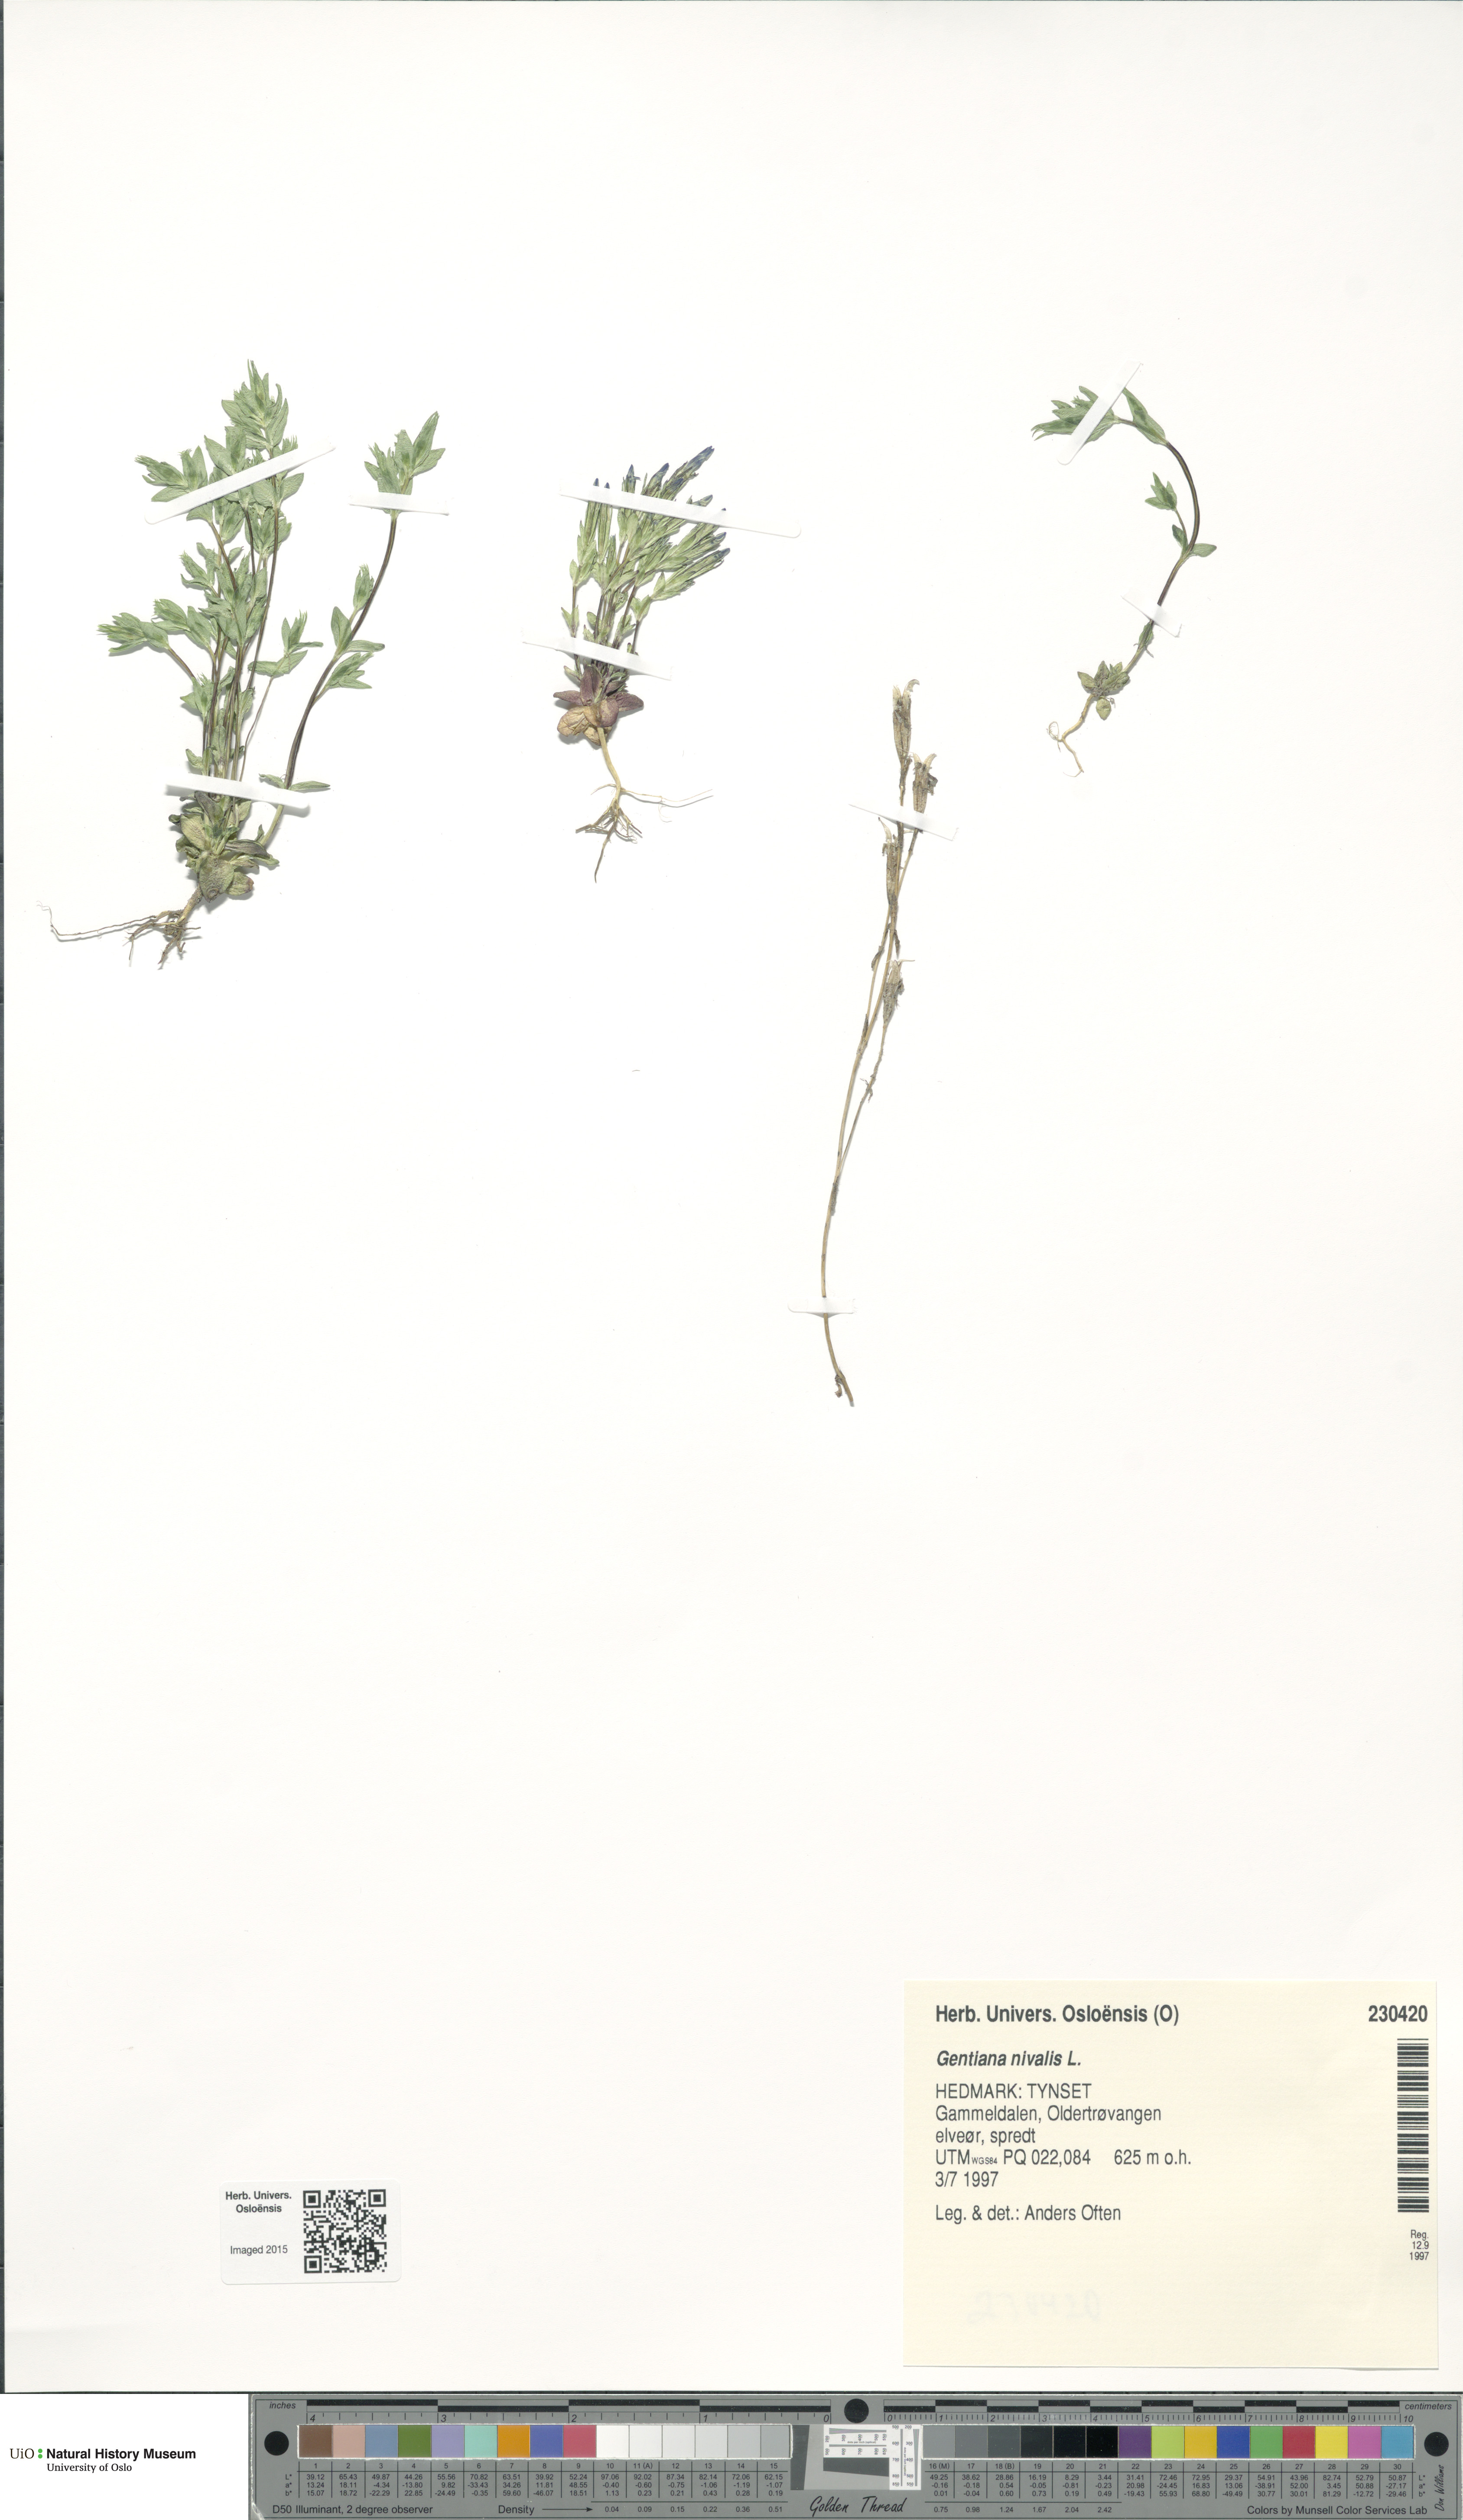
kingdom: Plantae
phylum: Tracheophyta
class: Magnoliopsida
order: Gentianales
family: Gentianaceae
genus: Gentiana
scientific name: Gentiana nivalis
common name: Alpine gentian
